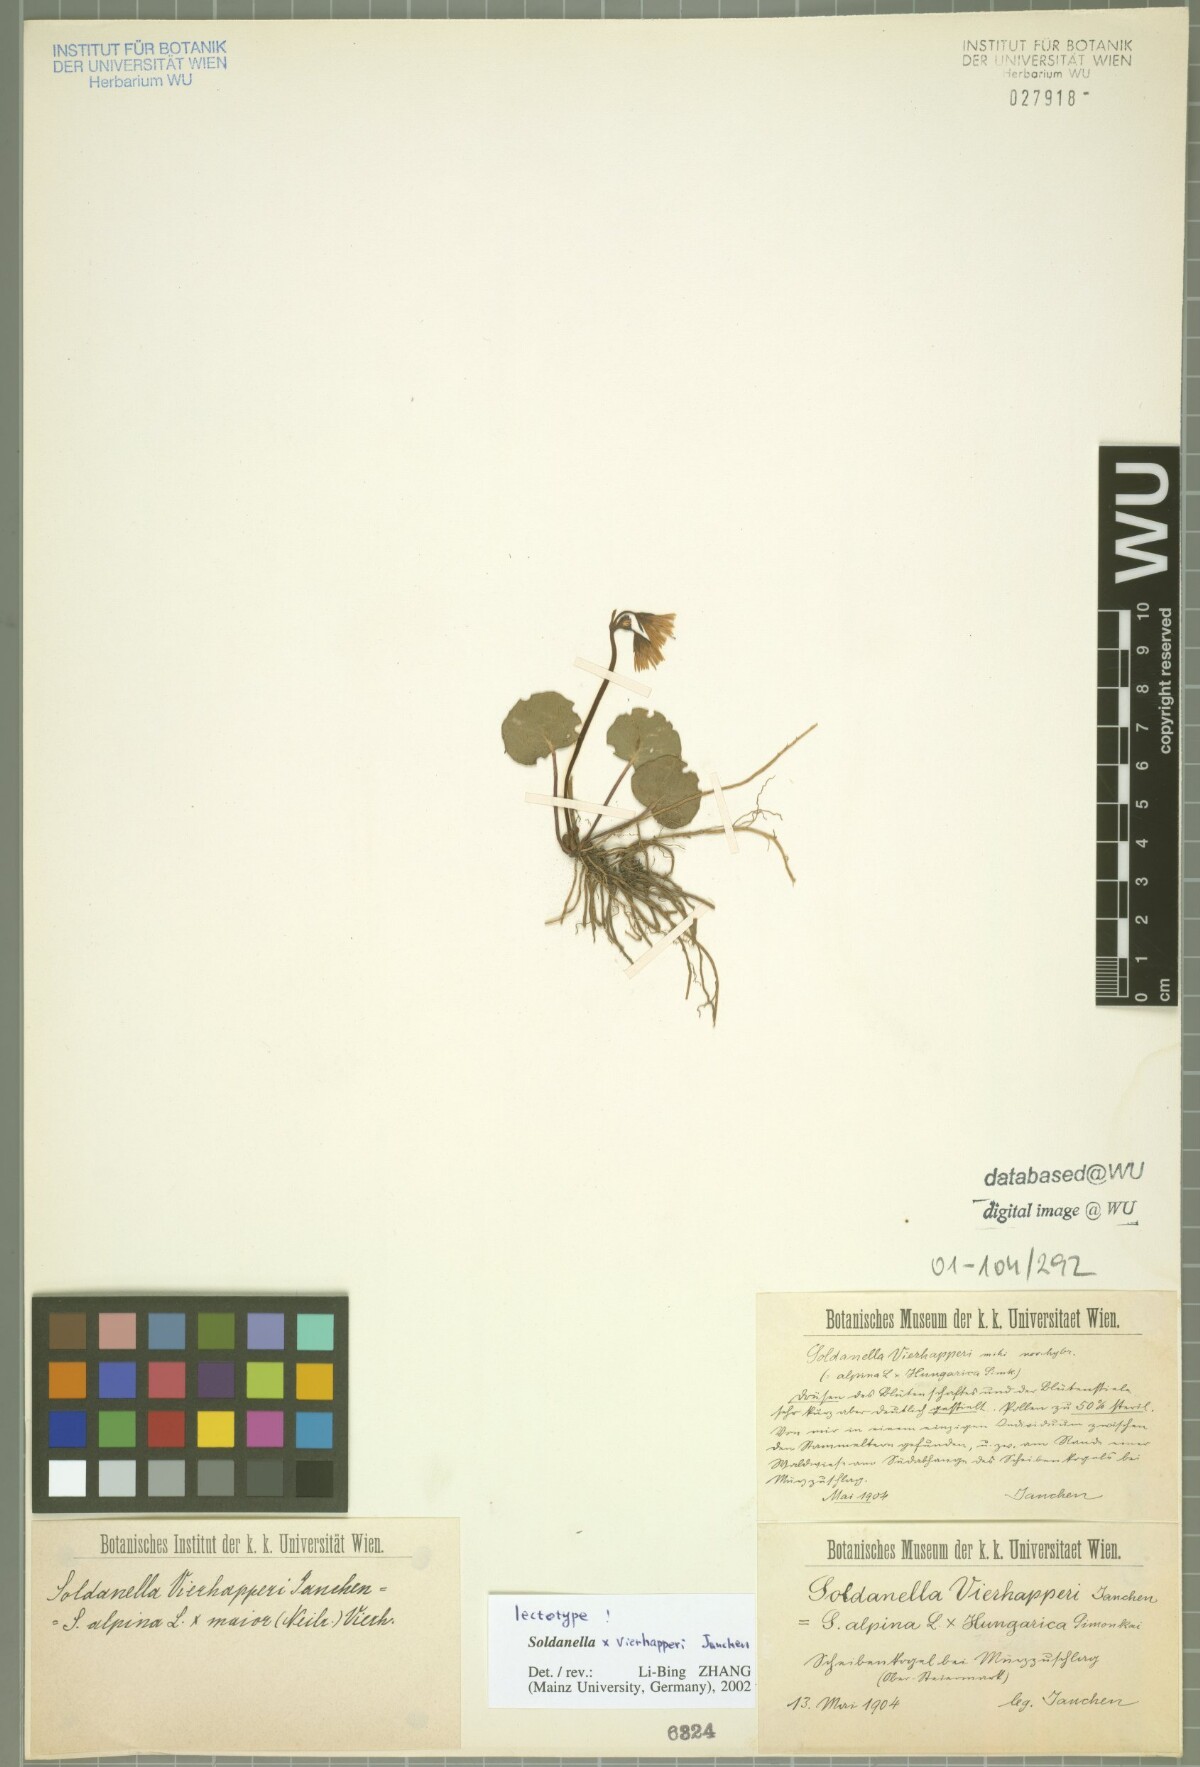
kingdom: Plantae
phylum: Tracheophyta
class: Magnoliopsida
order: Ericales
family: Primulaceae
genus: Soldanella
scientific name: Soldanella vierhapperi
